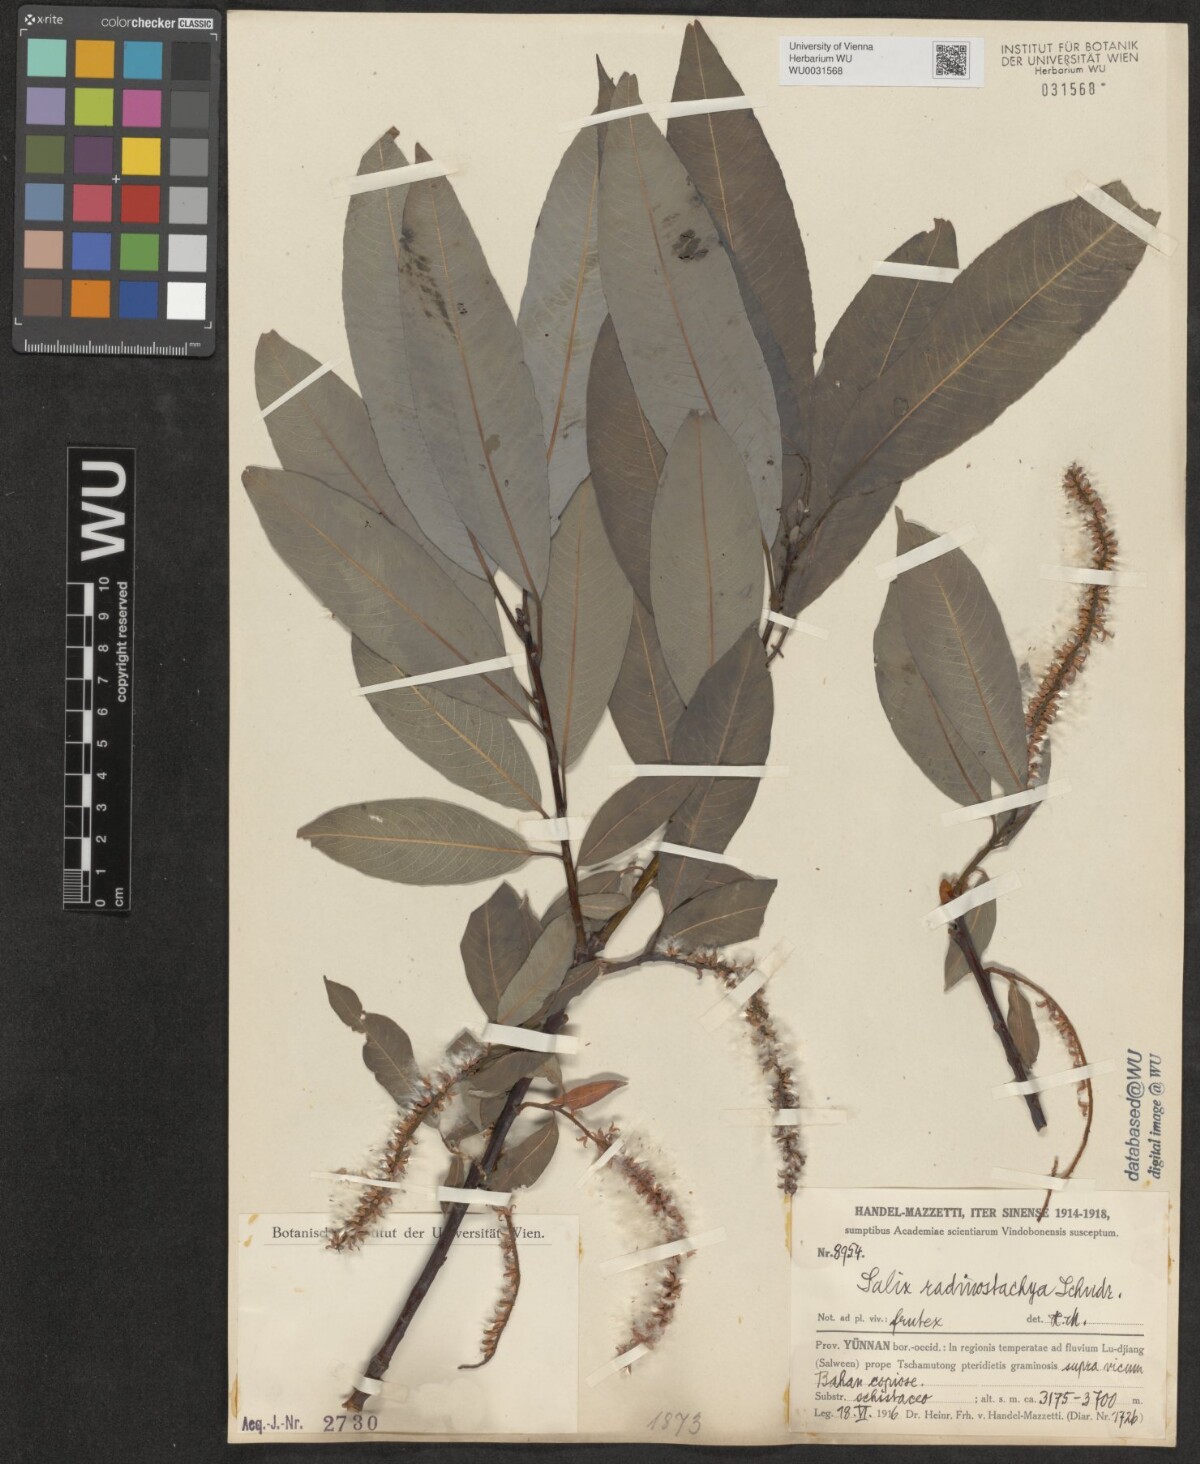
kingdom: Plantae
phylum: Tracheophyta
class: Magnoliopsida
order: Malpighiales
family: Salicaceae
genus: Salix
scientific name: Salix radinostachya
